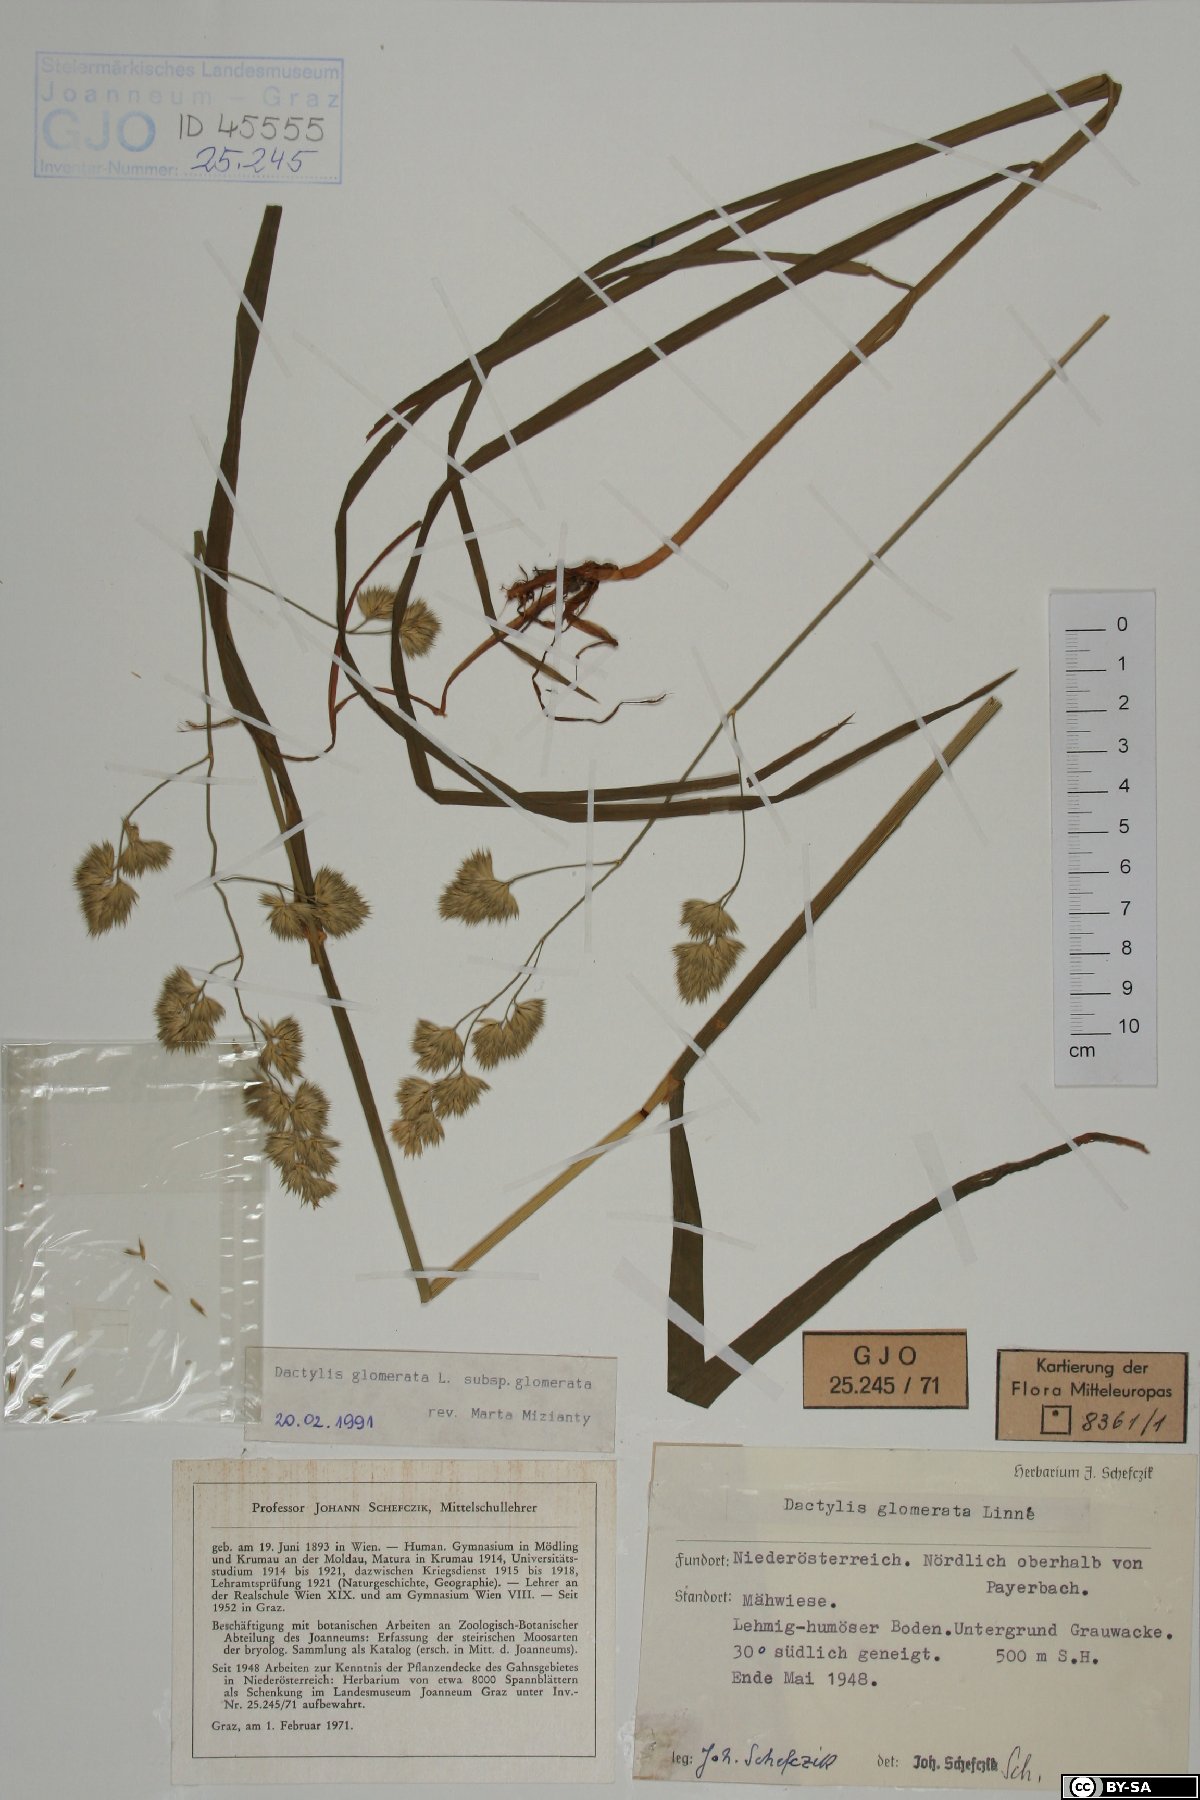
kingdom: Plantae
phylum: Tracheophyta
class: Liliopsida
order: Poales
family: Poaceae
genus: Dactylis
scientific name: Dactylis glomerata
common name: Orchardgrass
